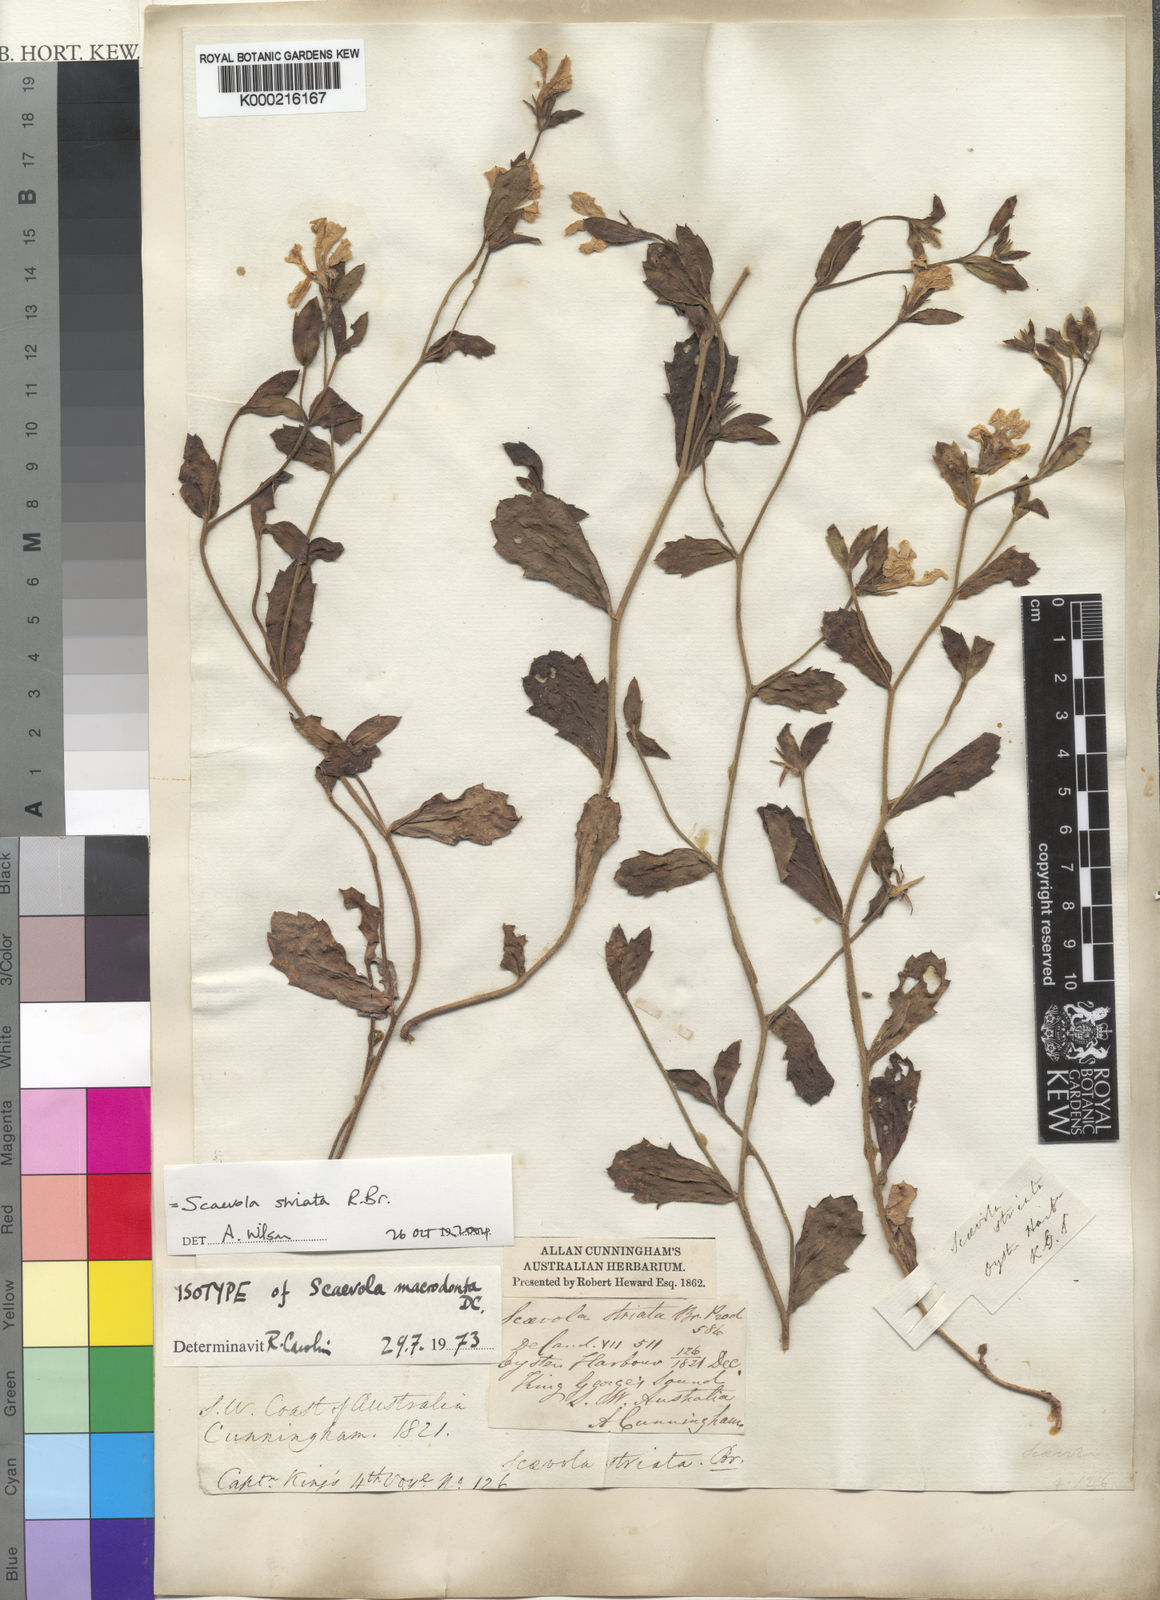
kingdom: Plantae
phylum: Tracheophyta
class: Magnoliopsida
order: Asterales
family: Goodeniaceae
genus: Scaevola
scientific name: Scaevola striata
